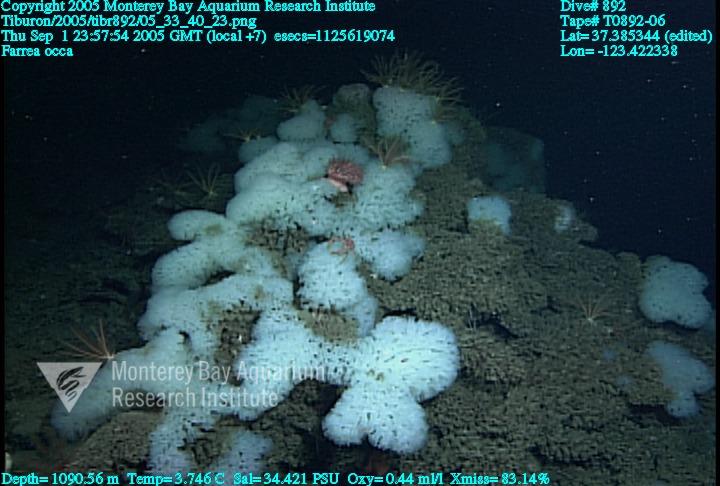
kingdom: Animalia
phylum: Porifera
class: Hexactinellida
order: Sceptrulophora
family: Farreidae
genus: Farrea
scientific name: Farrea occa
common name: Reversed glass sponge
